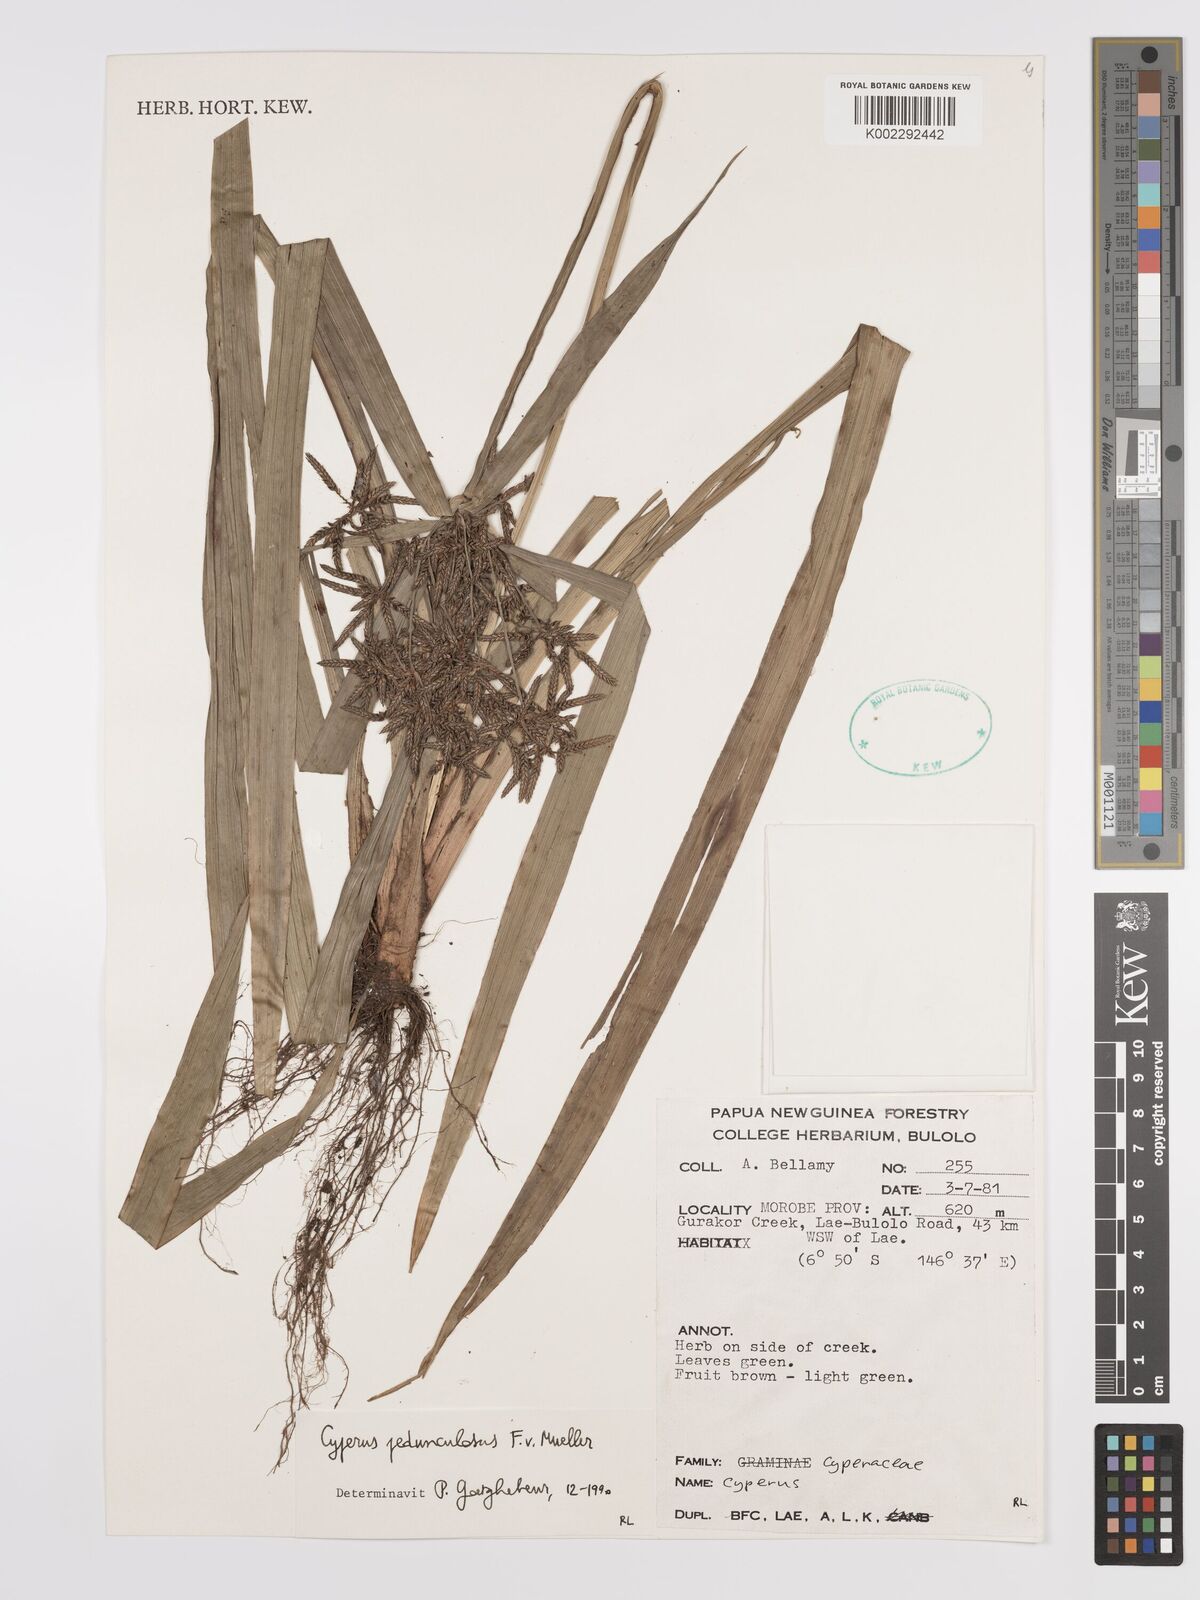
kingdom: Plantae
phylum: Tracheophyta
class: Liliopsida
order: Poales
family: Cyperaceae
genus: Cyperus
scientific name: Cyperus pedunculosus
